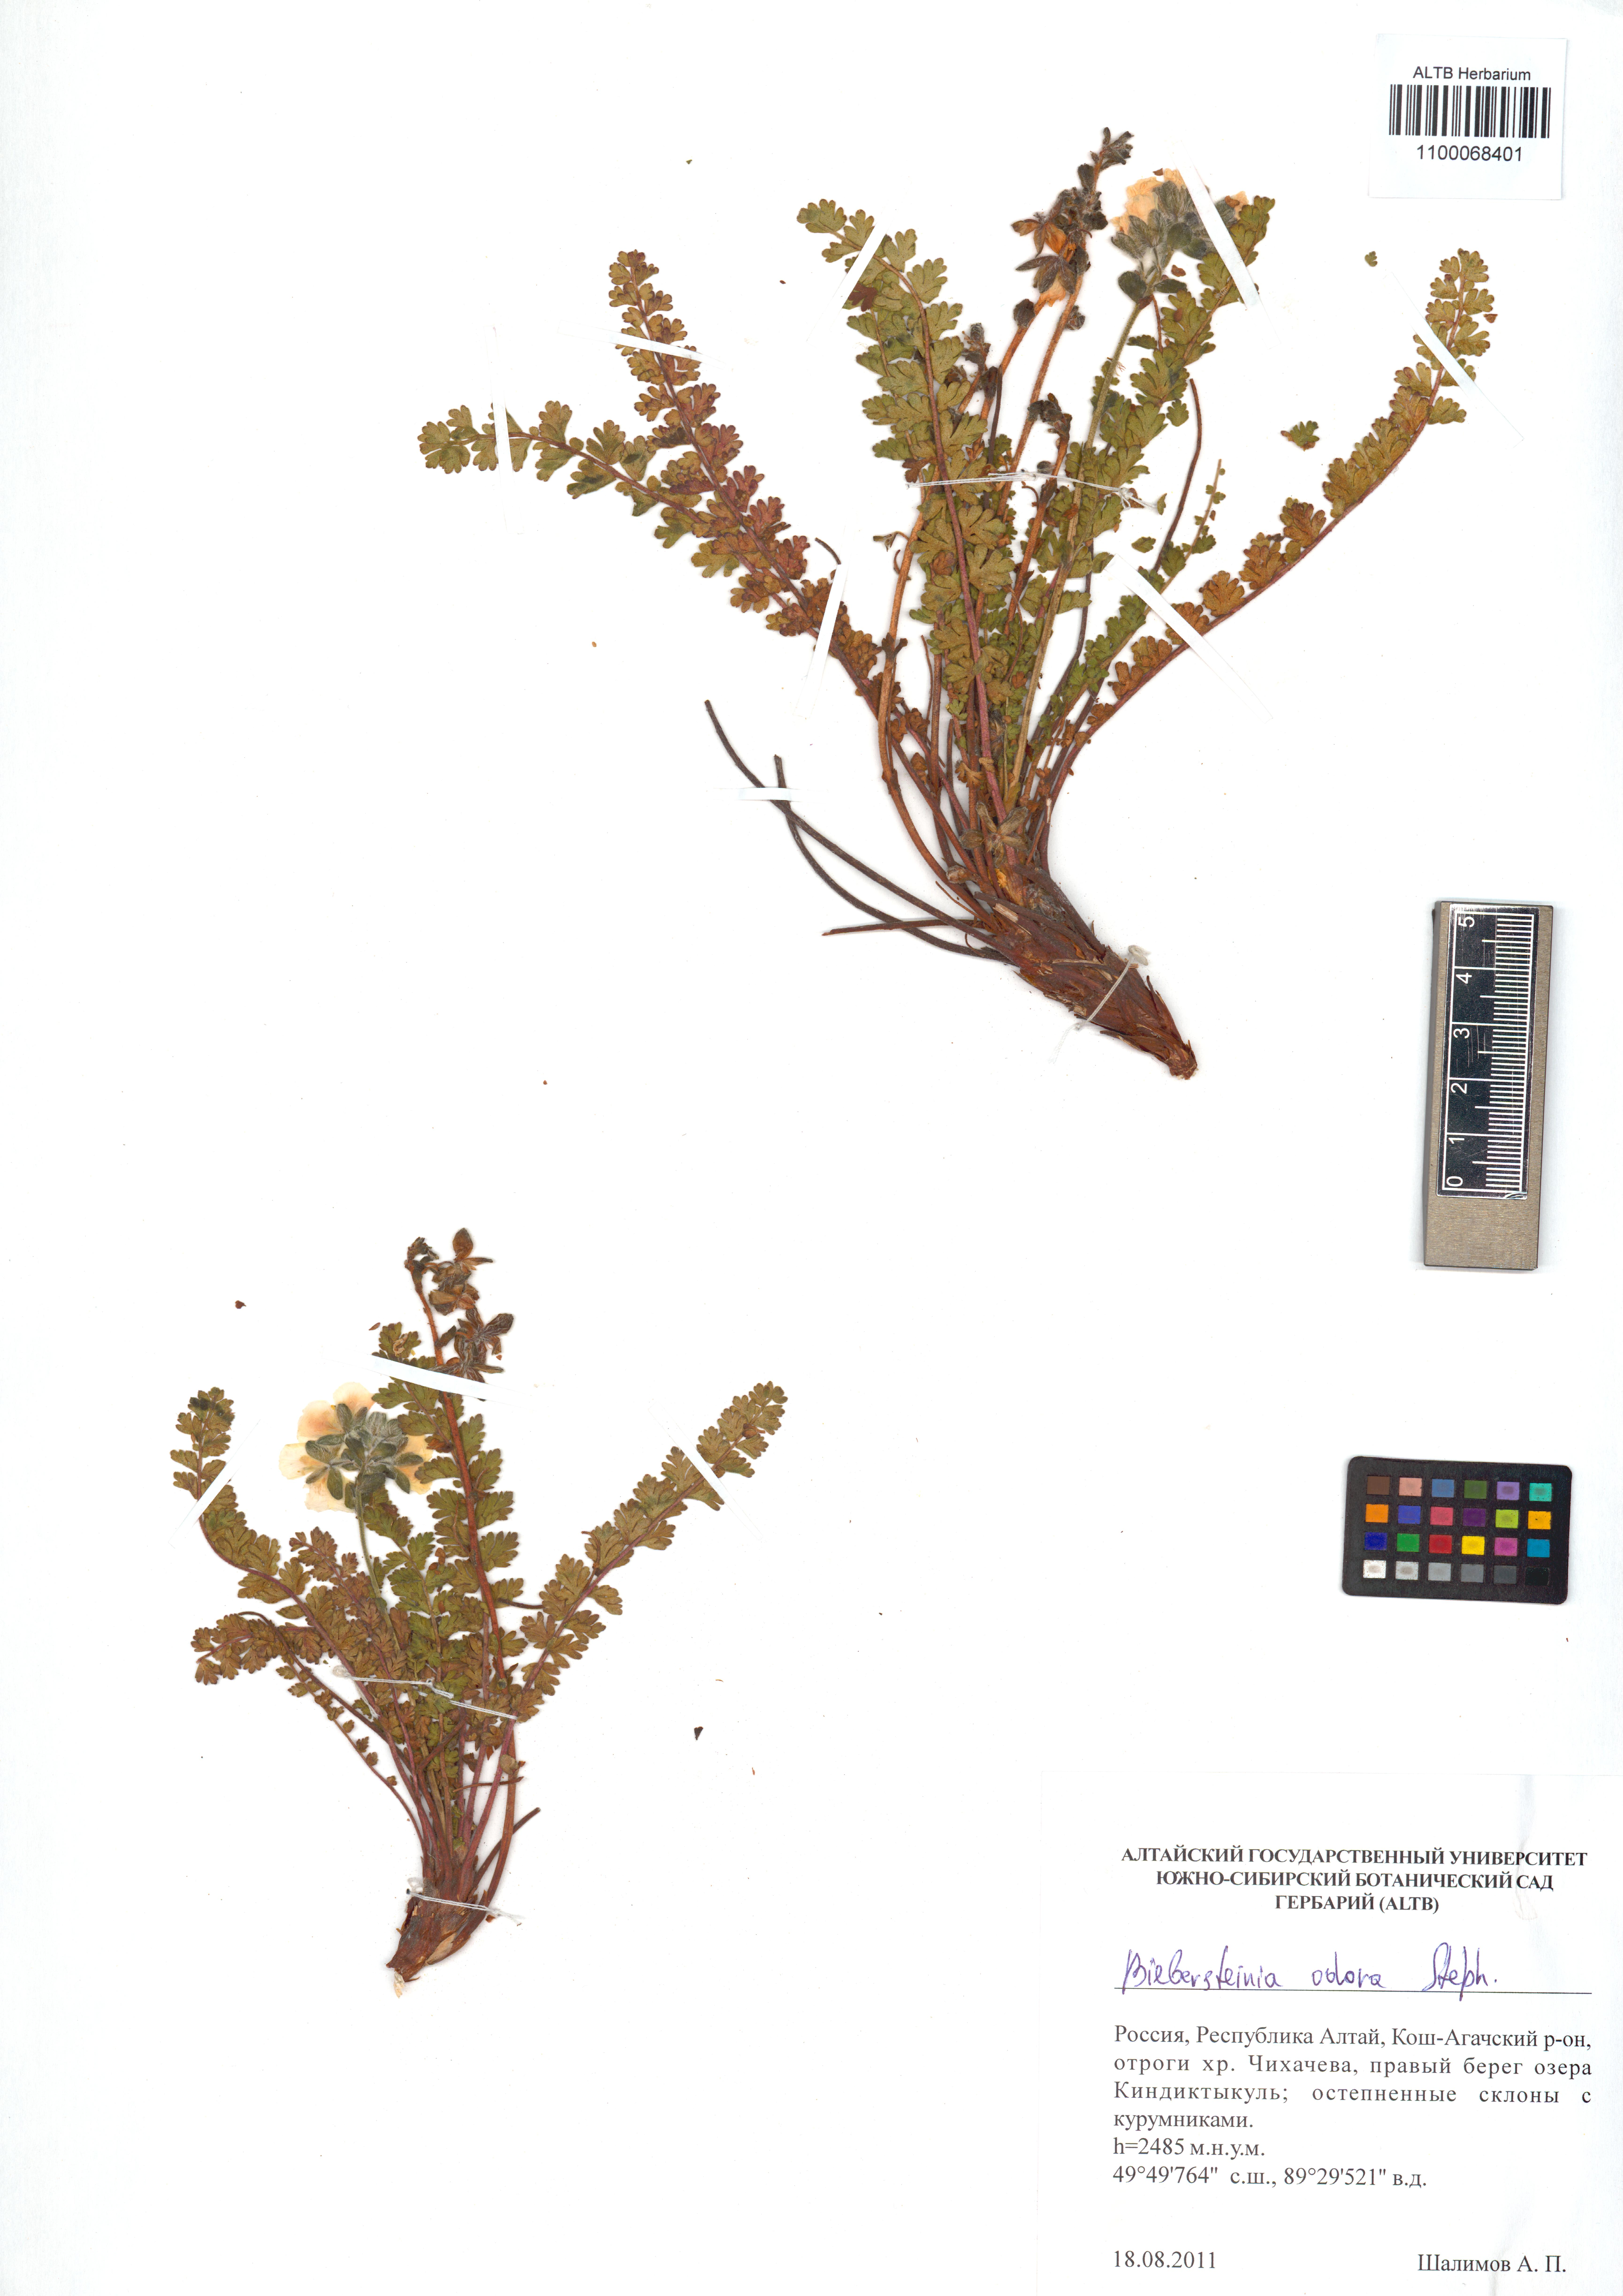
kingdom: Plantae
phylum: Tracheophyta
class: Magnoliopsida
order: Sapindales
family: Biebersteiniaceae
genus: Biebersteinia
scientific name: Biebersteinia odora
